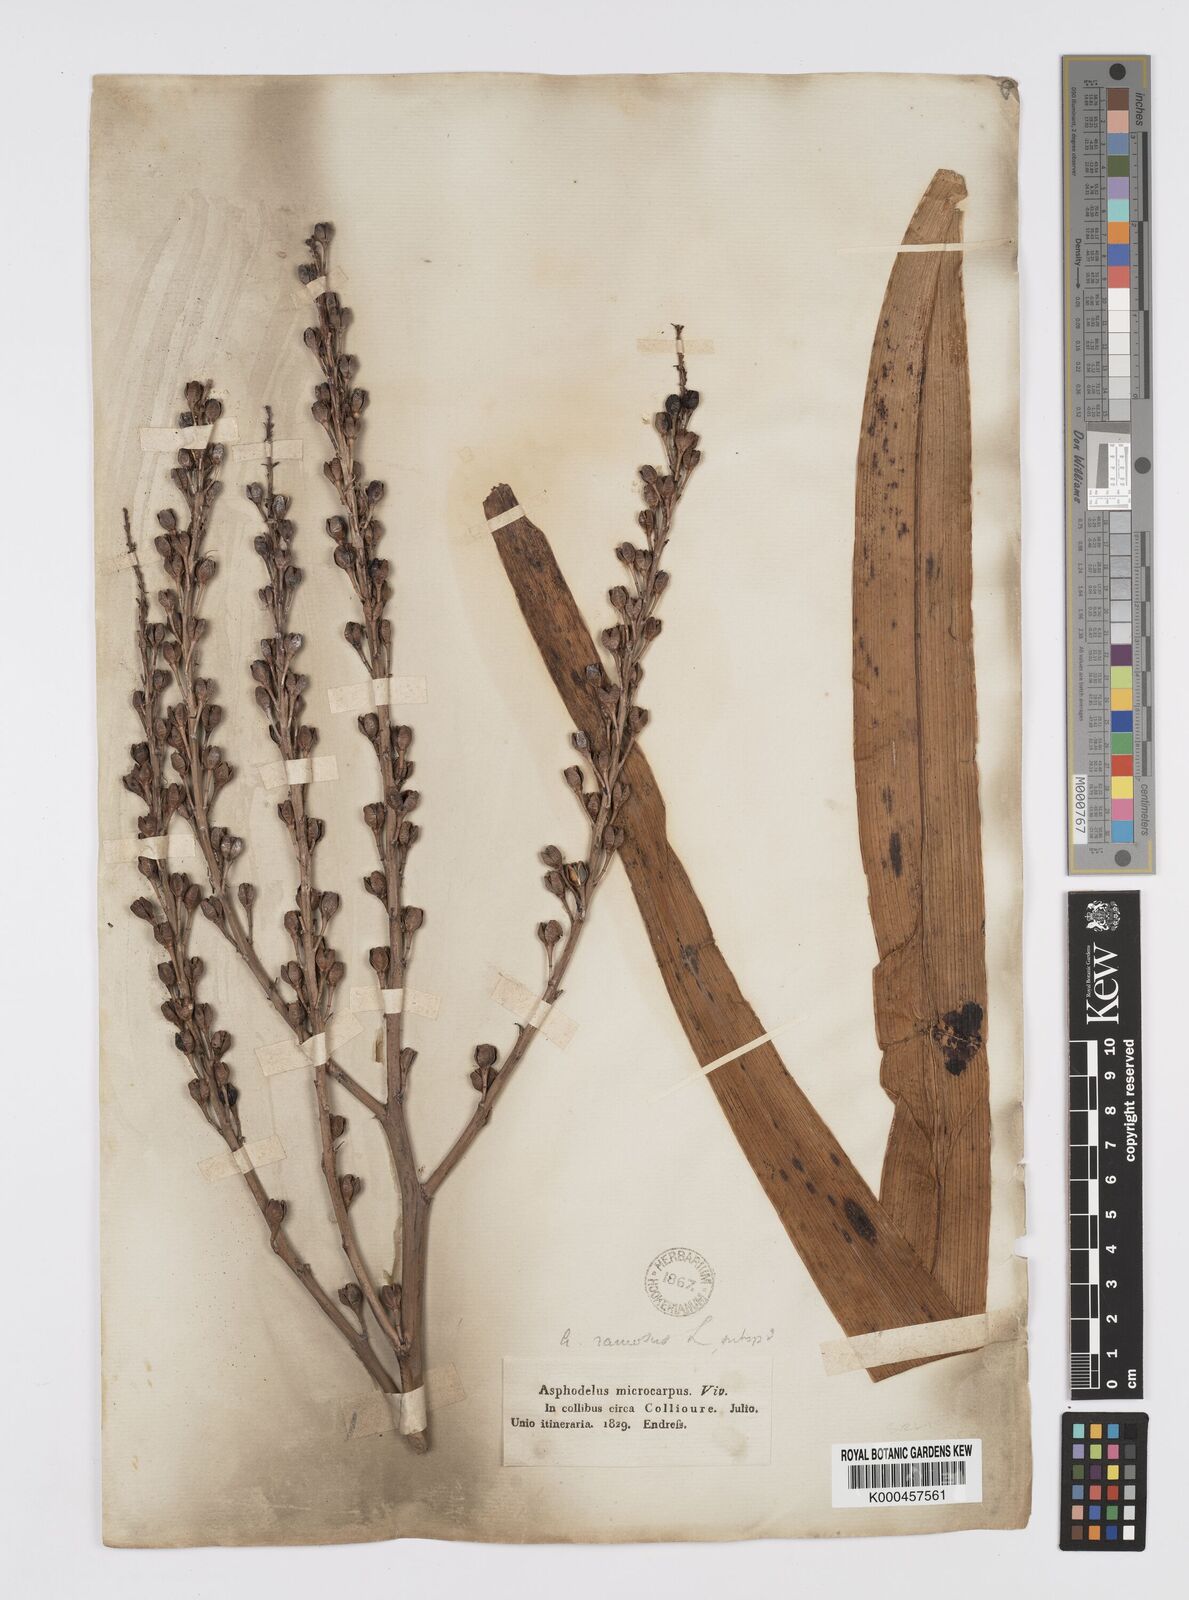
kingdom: Plantae
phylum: Tracheophyta
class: Liliopsida
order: Asparagales
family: Asphodelaceae
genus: Asphodelus
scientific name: Asphodelus aestivus
